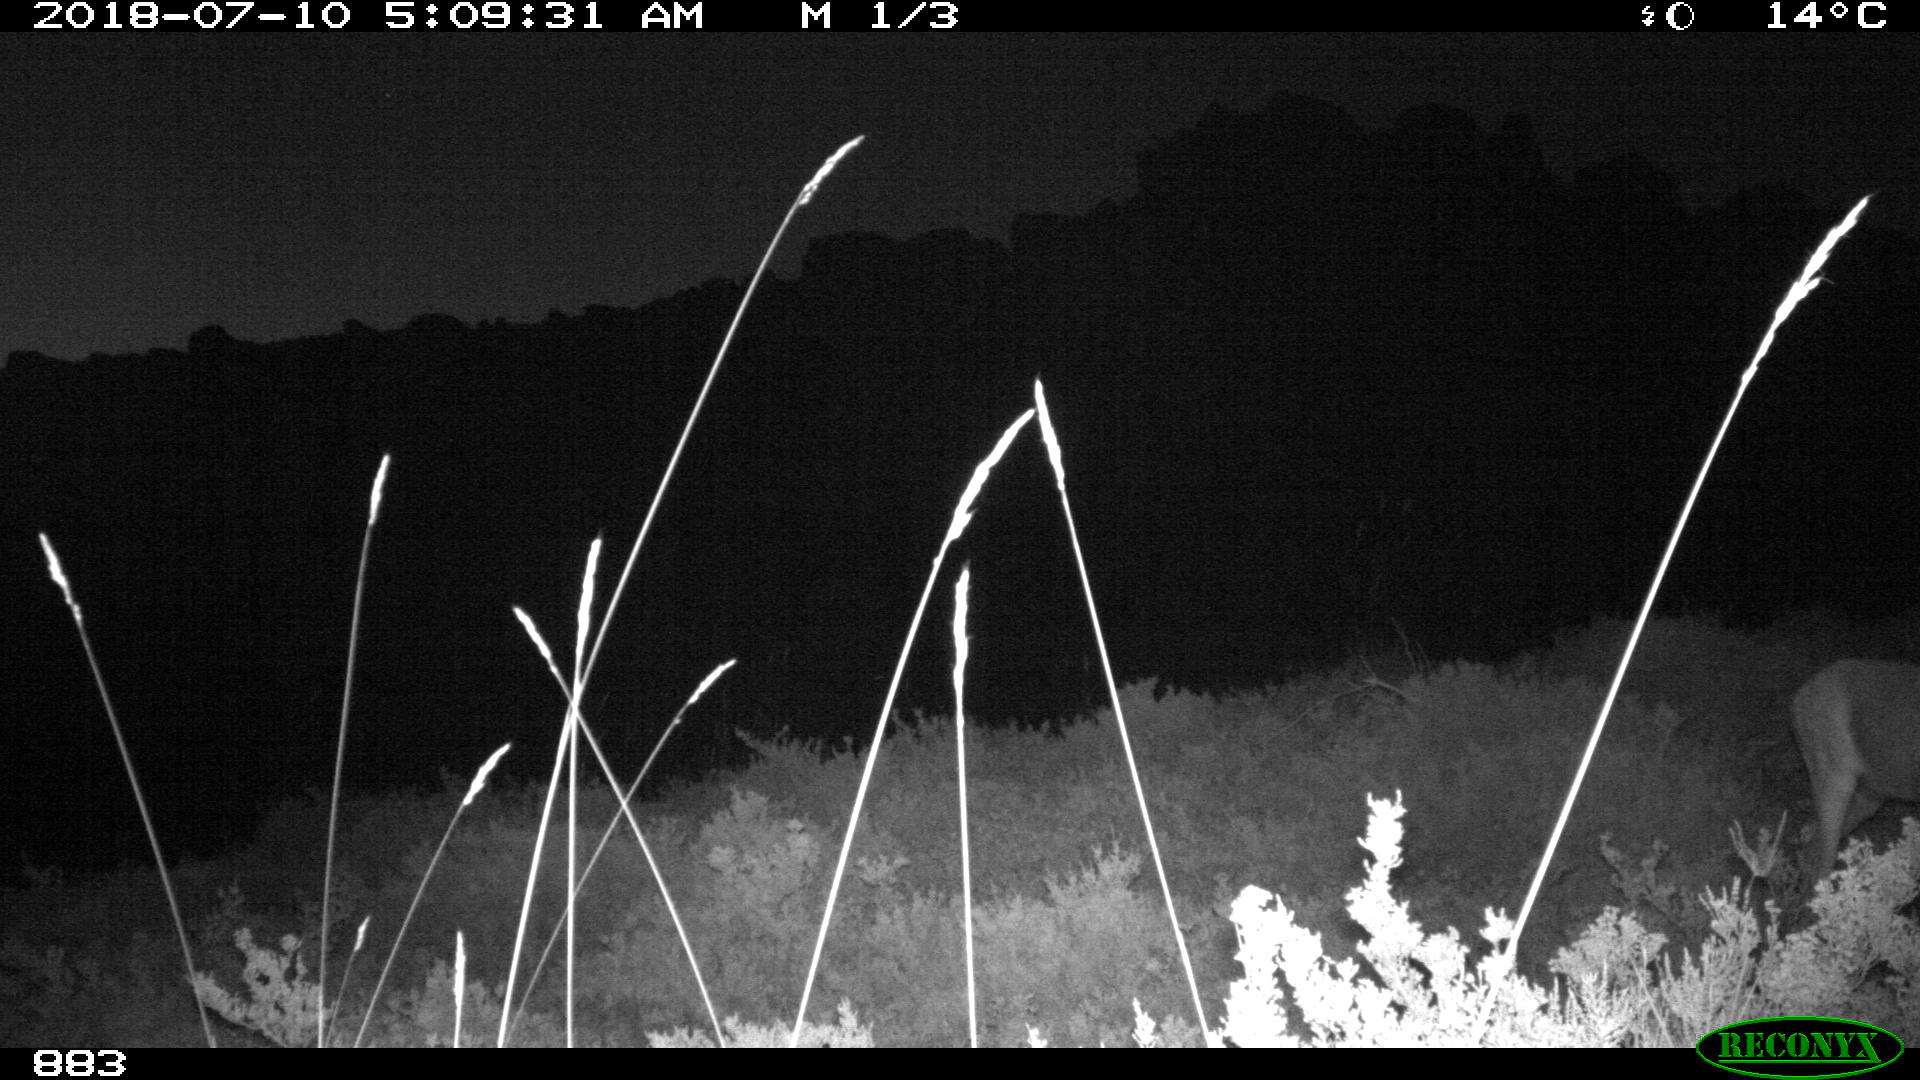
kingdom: Animalia
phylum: Chordata
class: Mammalia
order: Artiodactyla
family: Cervidae
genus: Capreolus
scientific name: Capreolus capreolus
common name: Western roe deer
